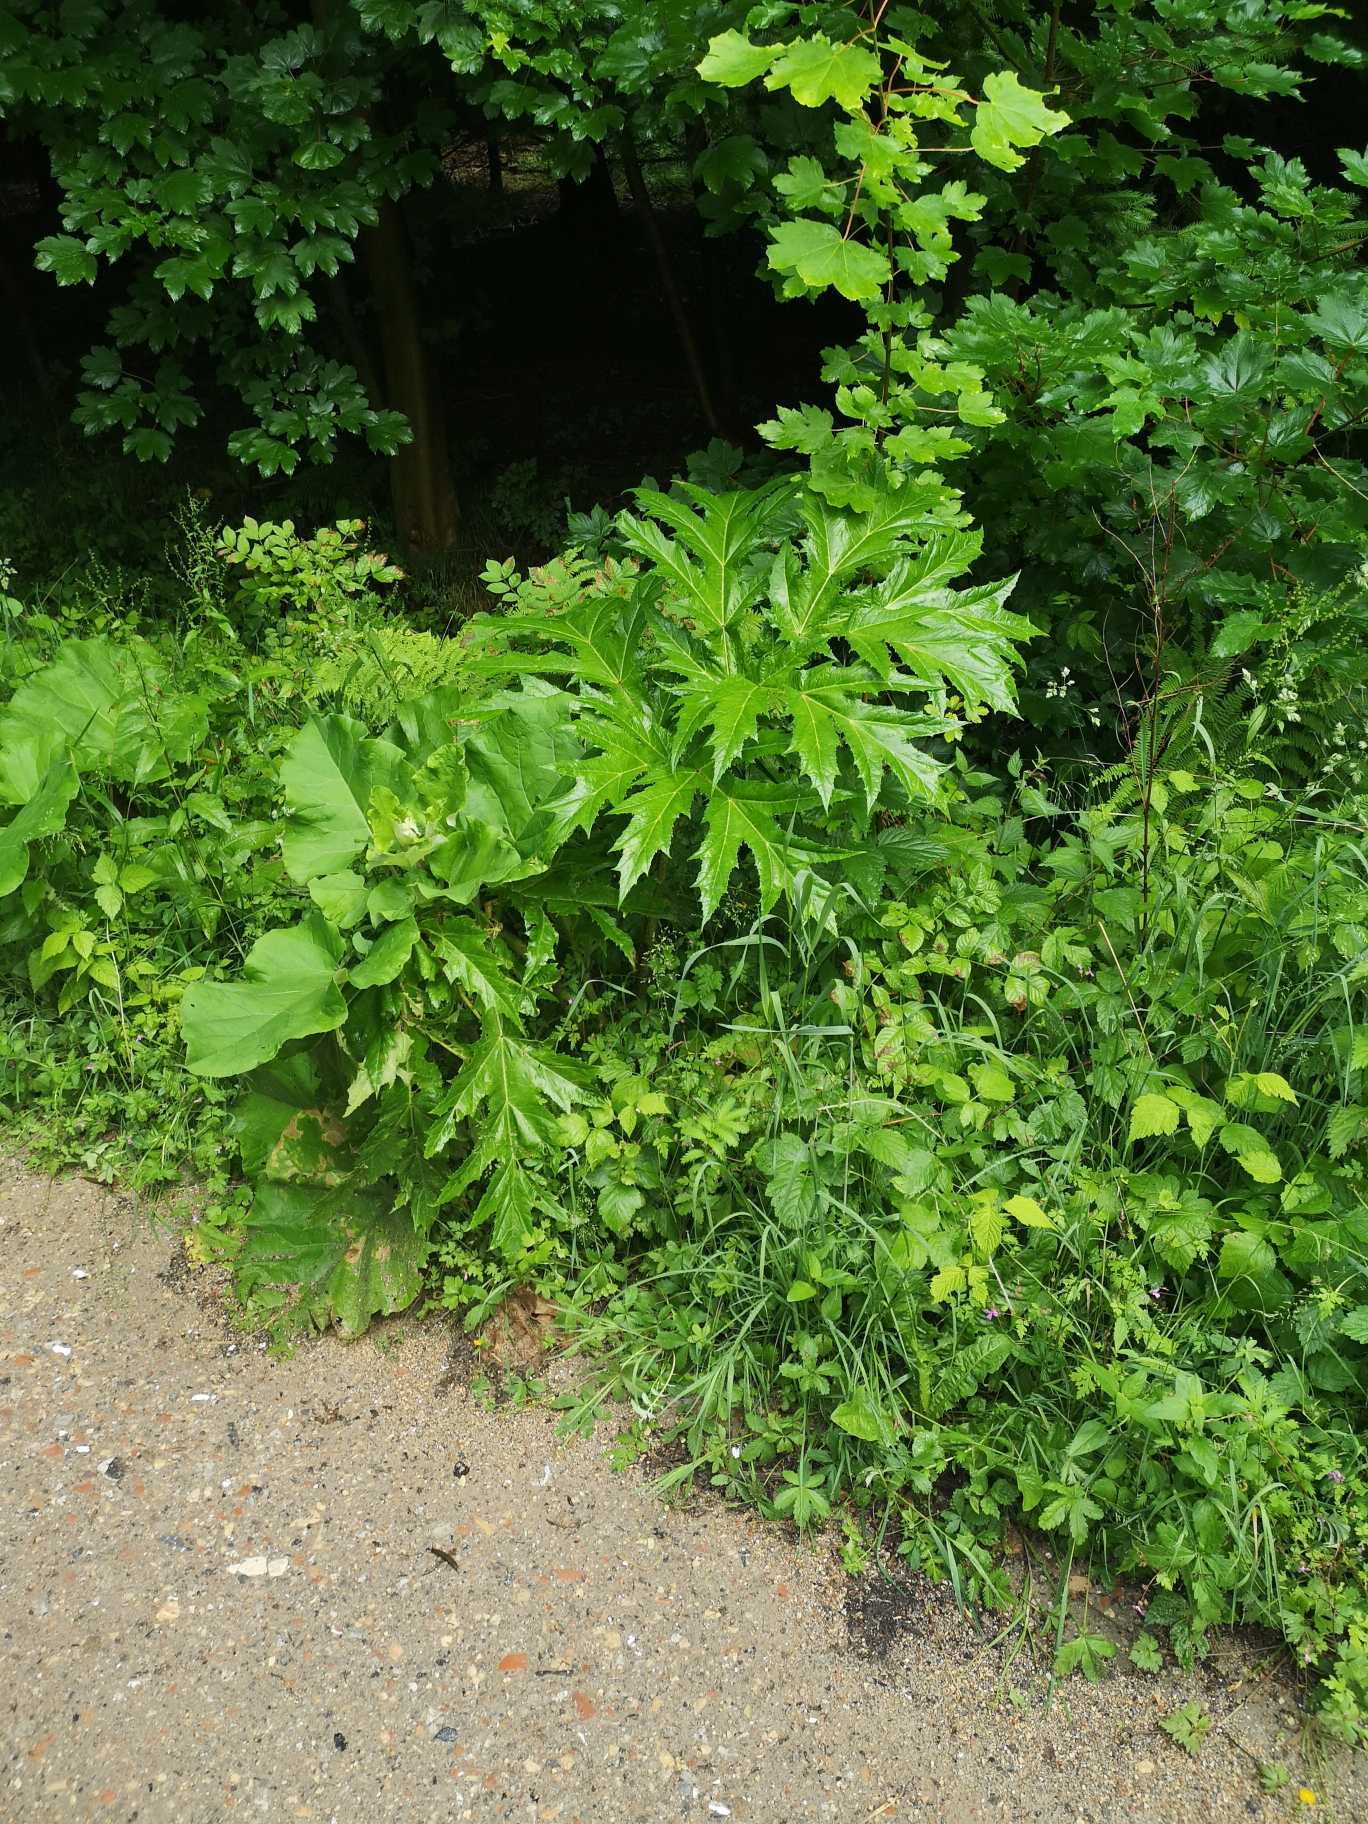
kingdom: Plantae
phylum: Tracheophyta
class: Magnoliopsida
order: Apiales
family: Apiaceae
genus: Heracleum
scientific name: Heracleum mantegazzianum
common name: Kæmpe-bjørneklo
